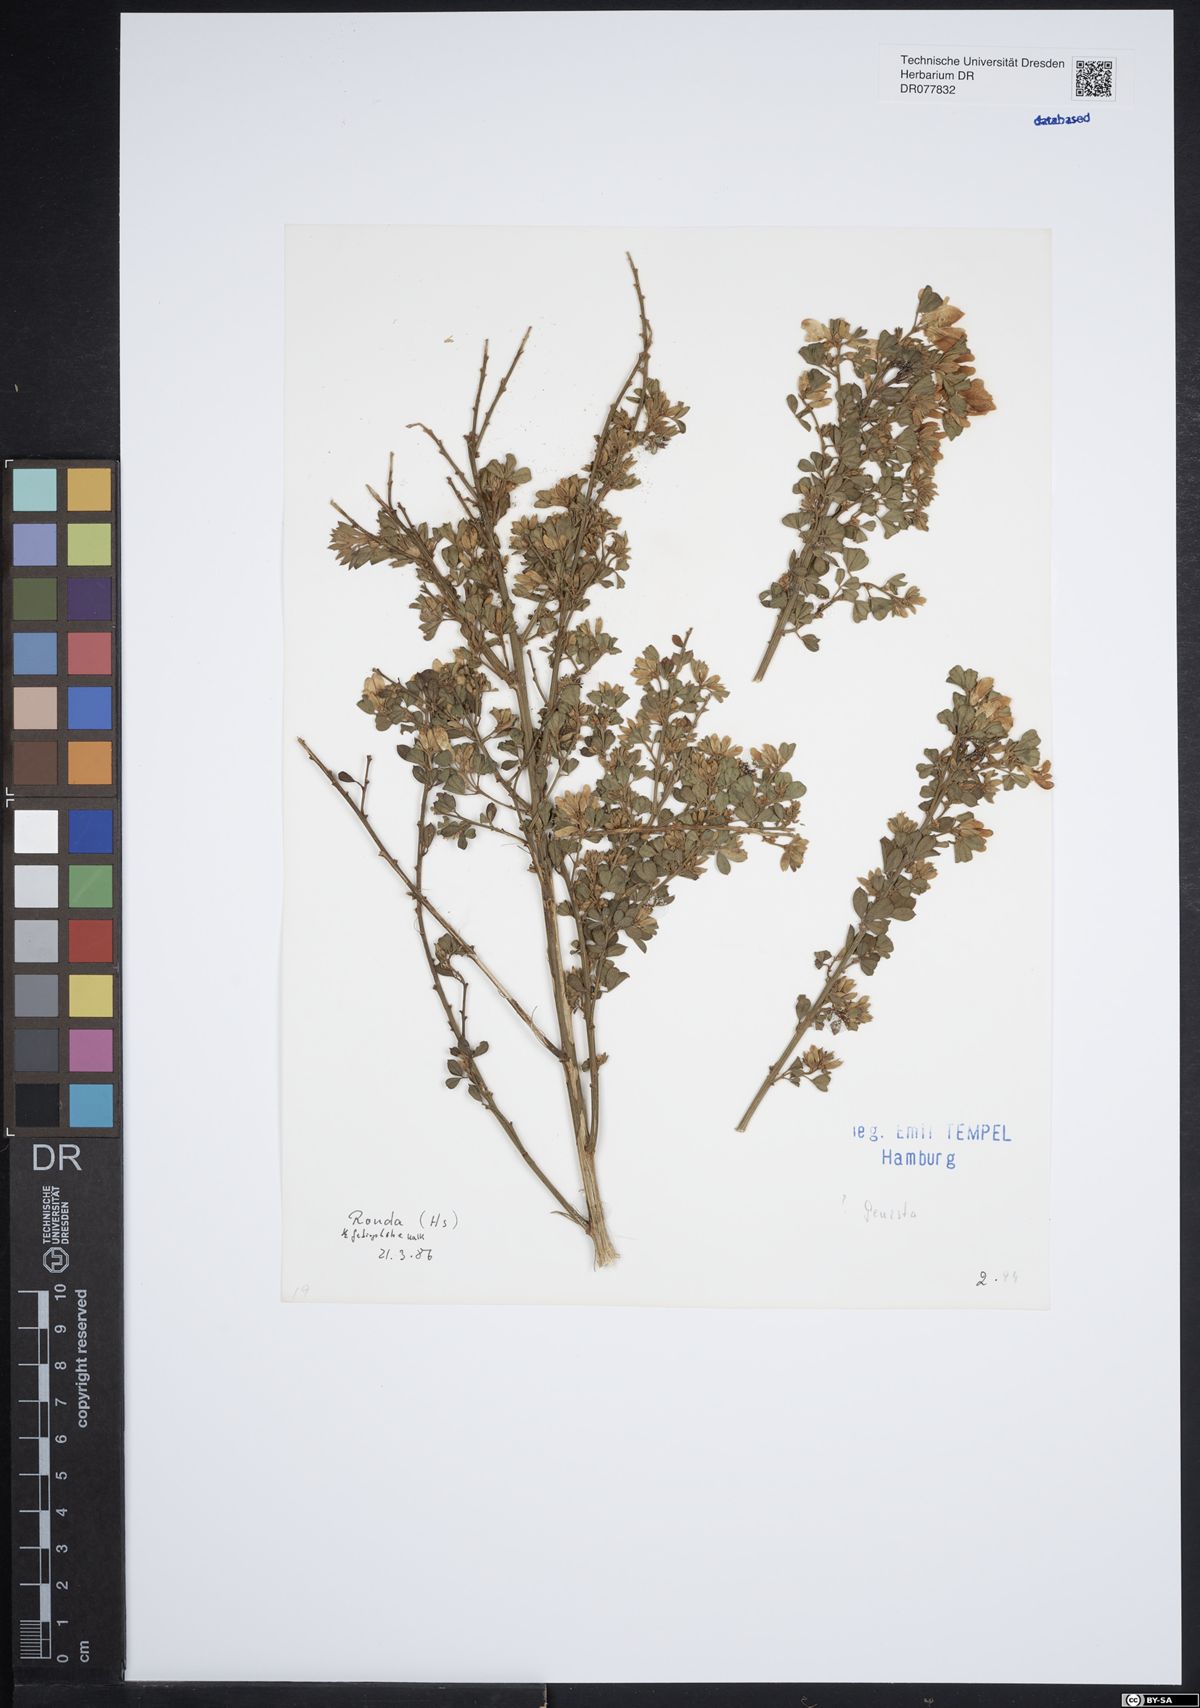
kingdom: Plantae
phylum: Tracheophyta
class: Magnoliopsida
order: Fabales
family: Fabaceae
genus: Genista
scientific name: Genista
